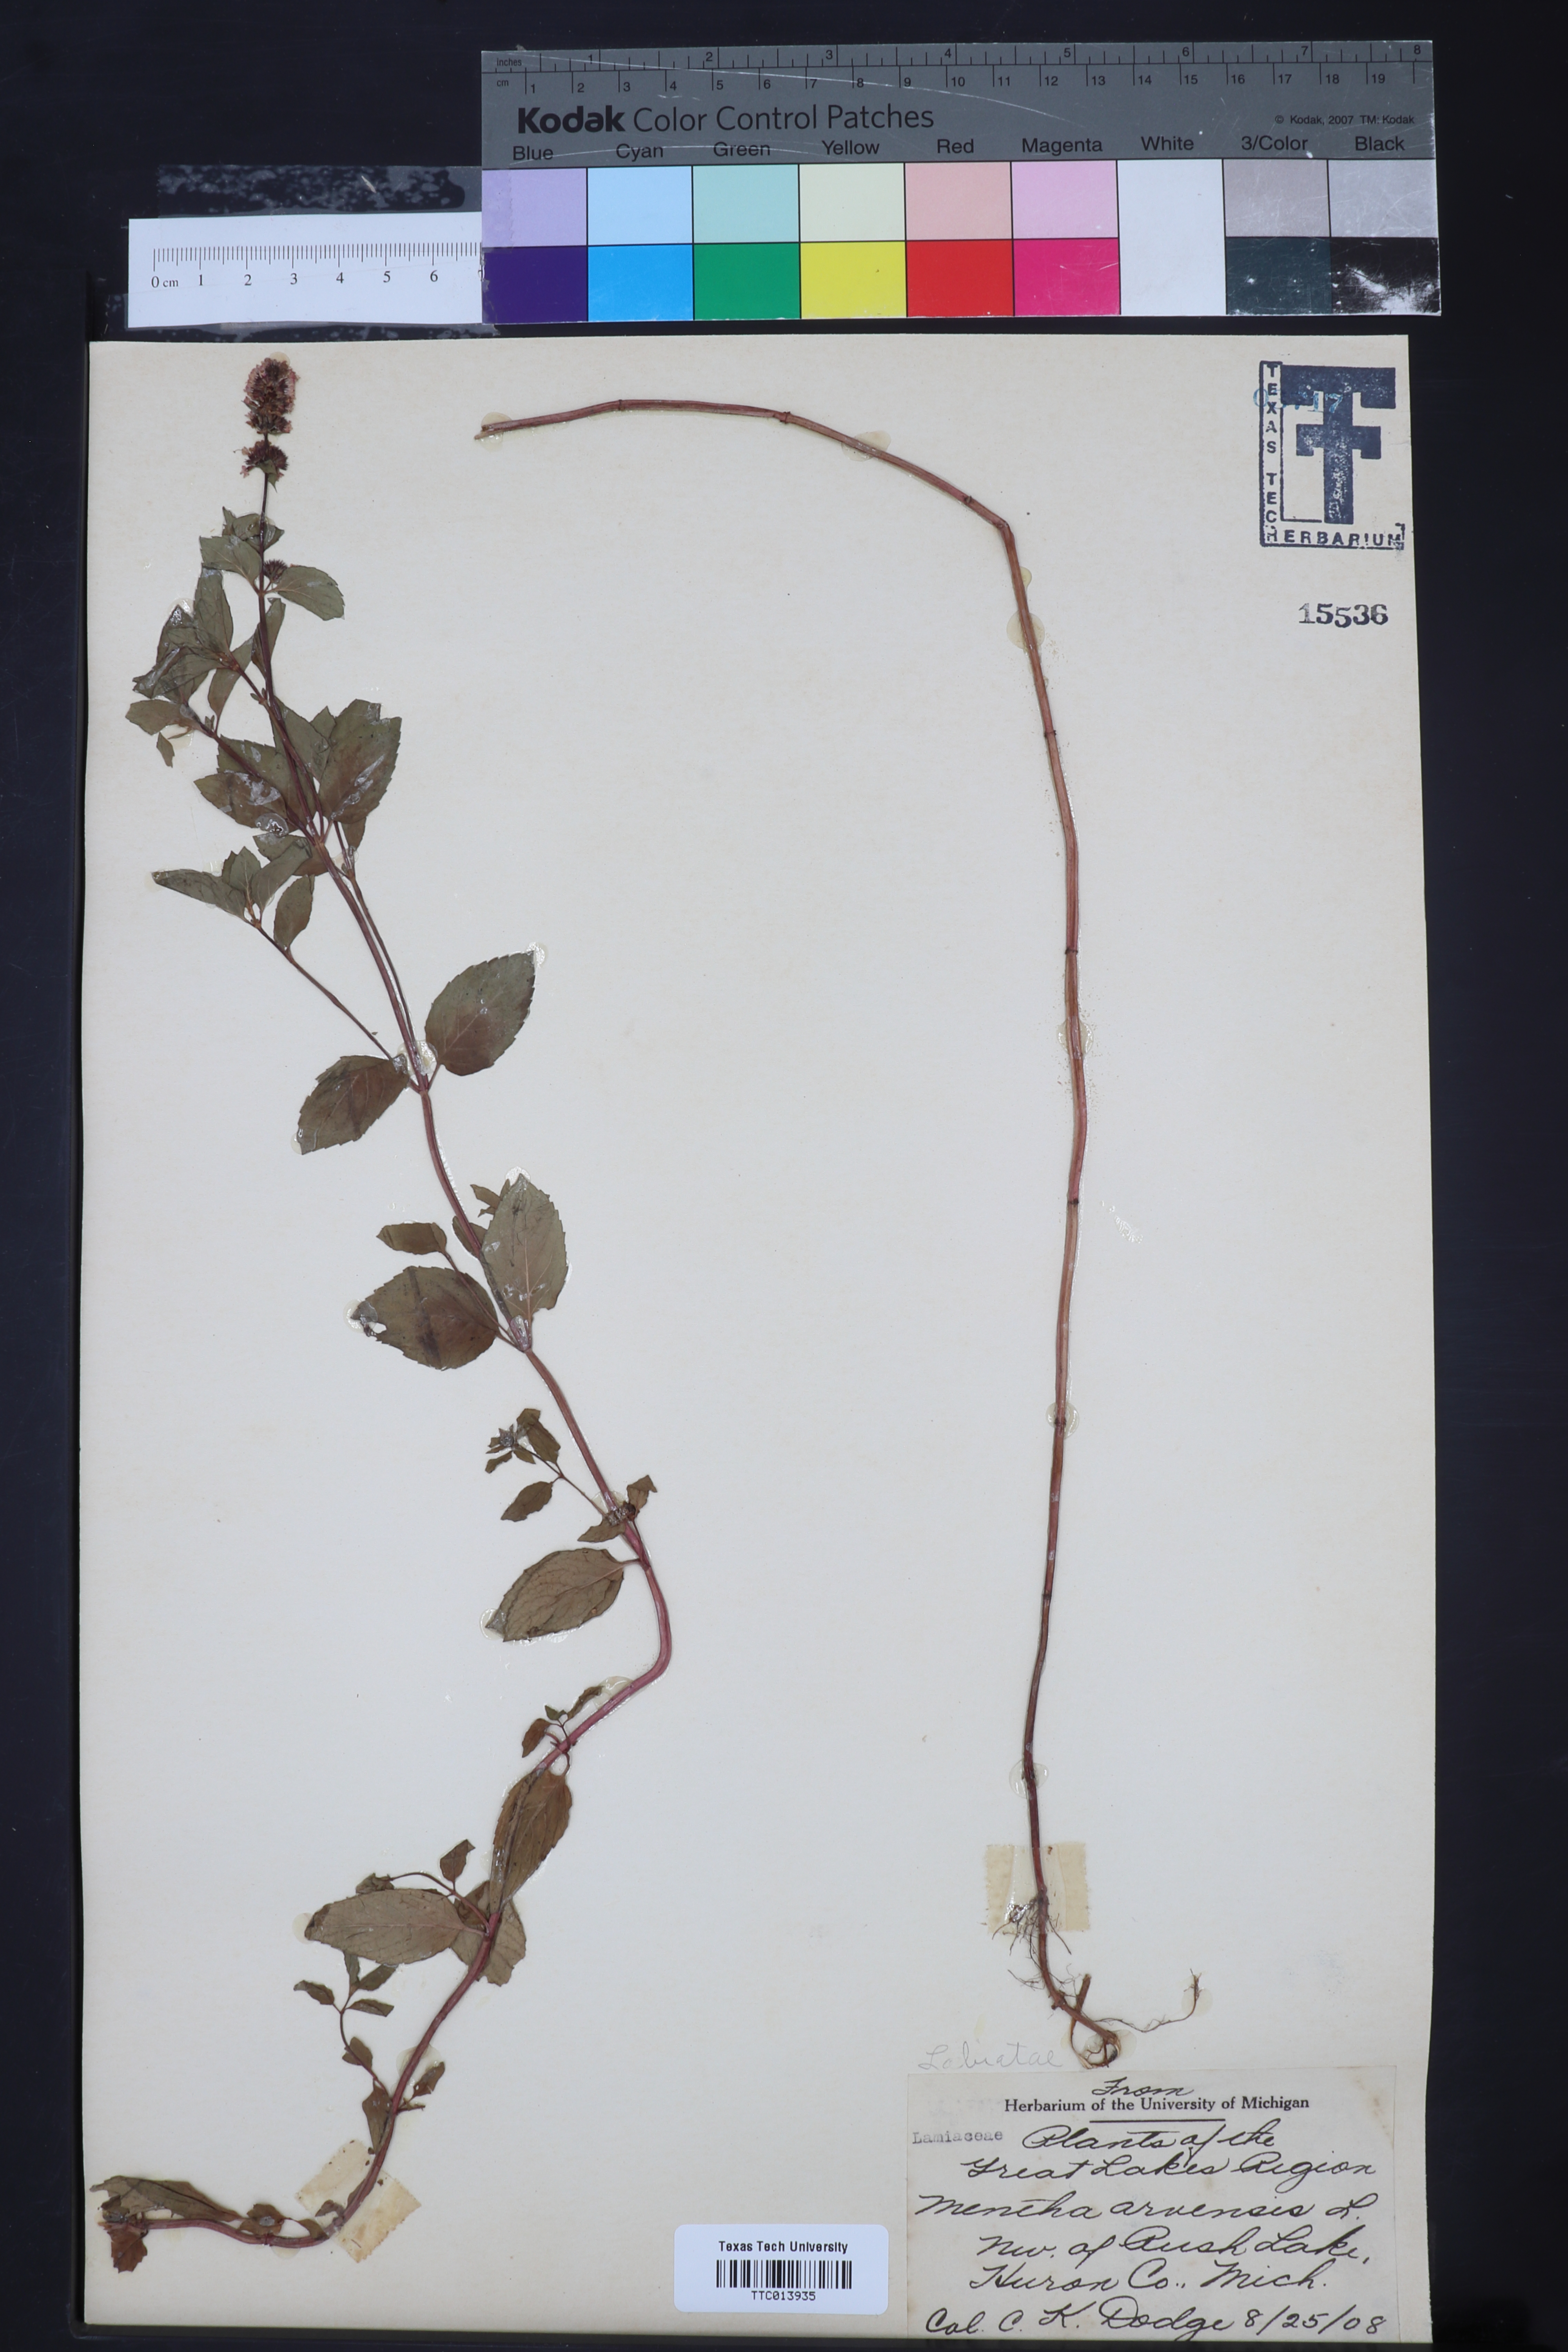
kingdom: Plantae
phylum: Tracheophyta
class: Magnoliopsida
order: Lamiales
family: Lamiaceae
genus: Mentha
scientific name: Mentha arvensis
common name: Corn mint
